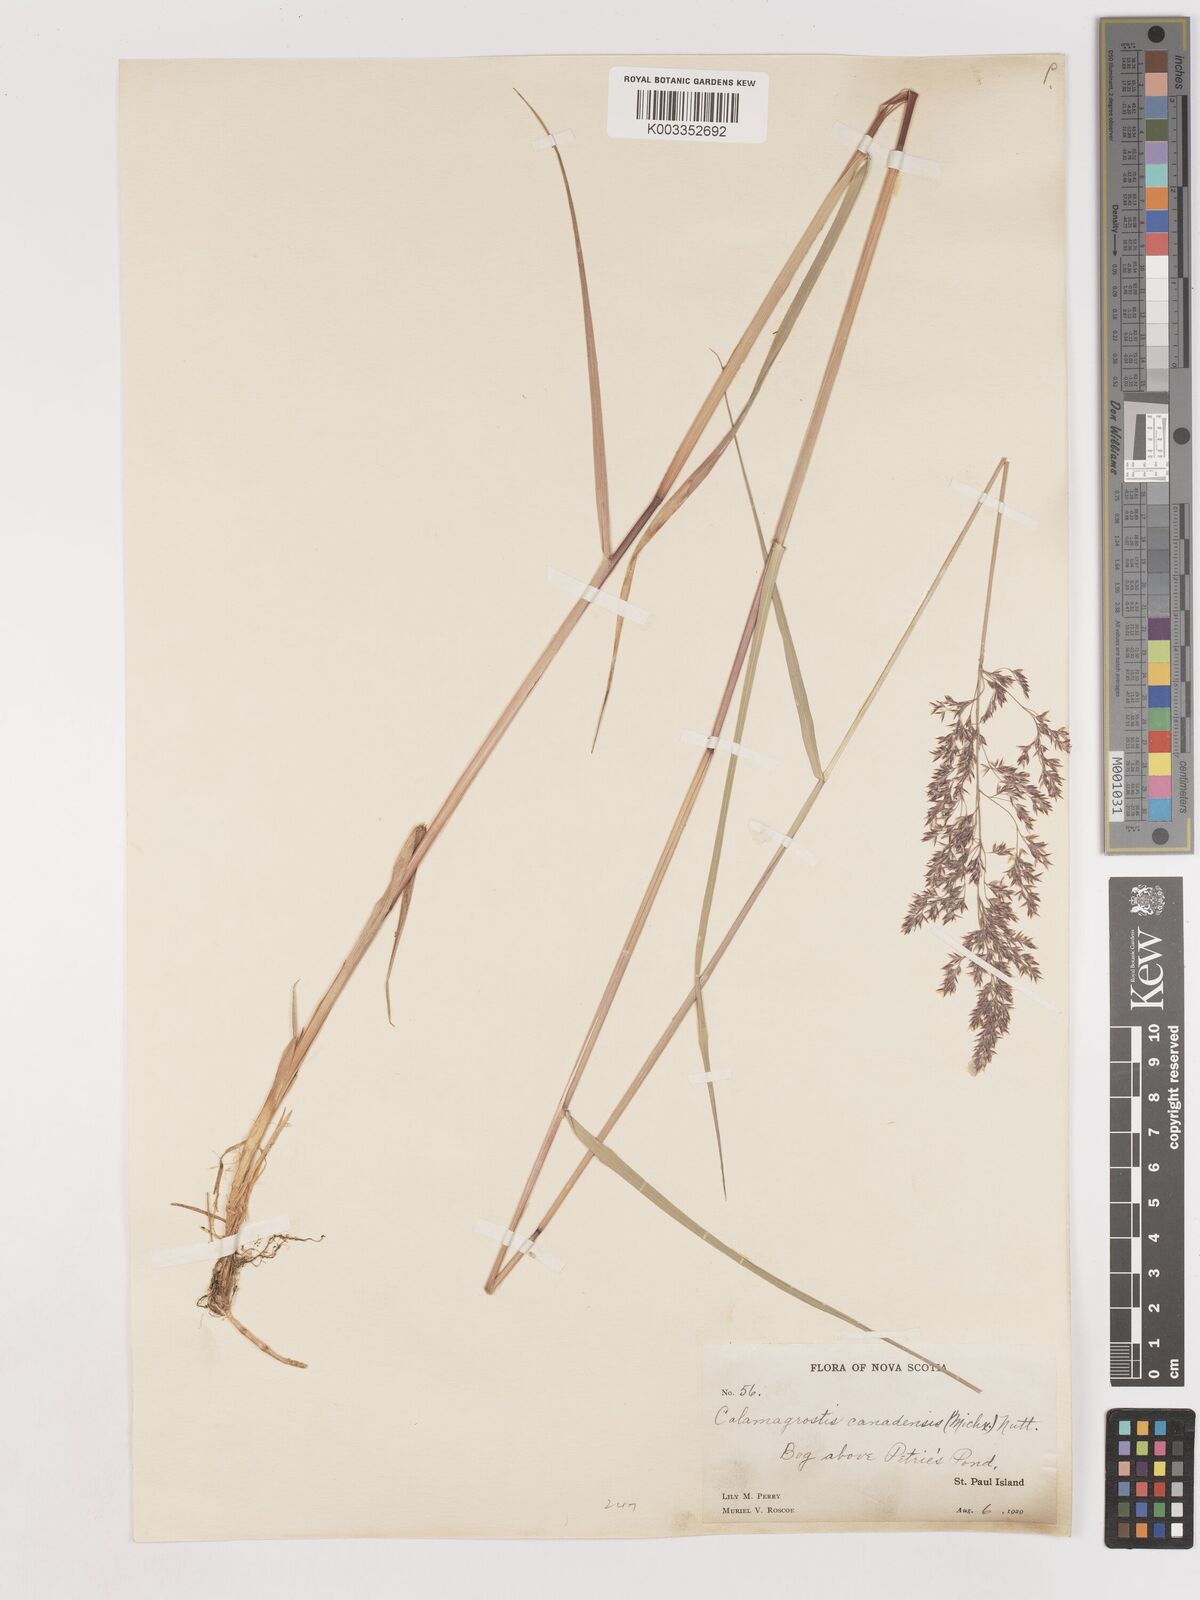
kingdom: Plantae
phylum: Tracheophyta
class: Liliopsida
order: Poales
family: Poaceae
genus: Calamagrostis
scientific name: Calamagrostis canadensis
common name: Canada bluejoint
